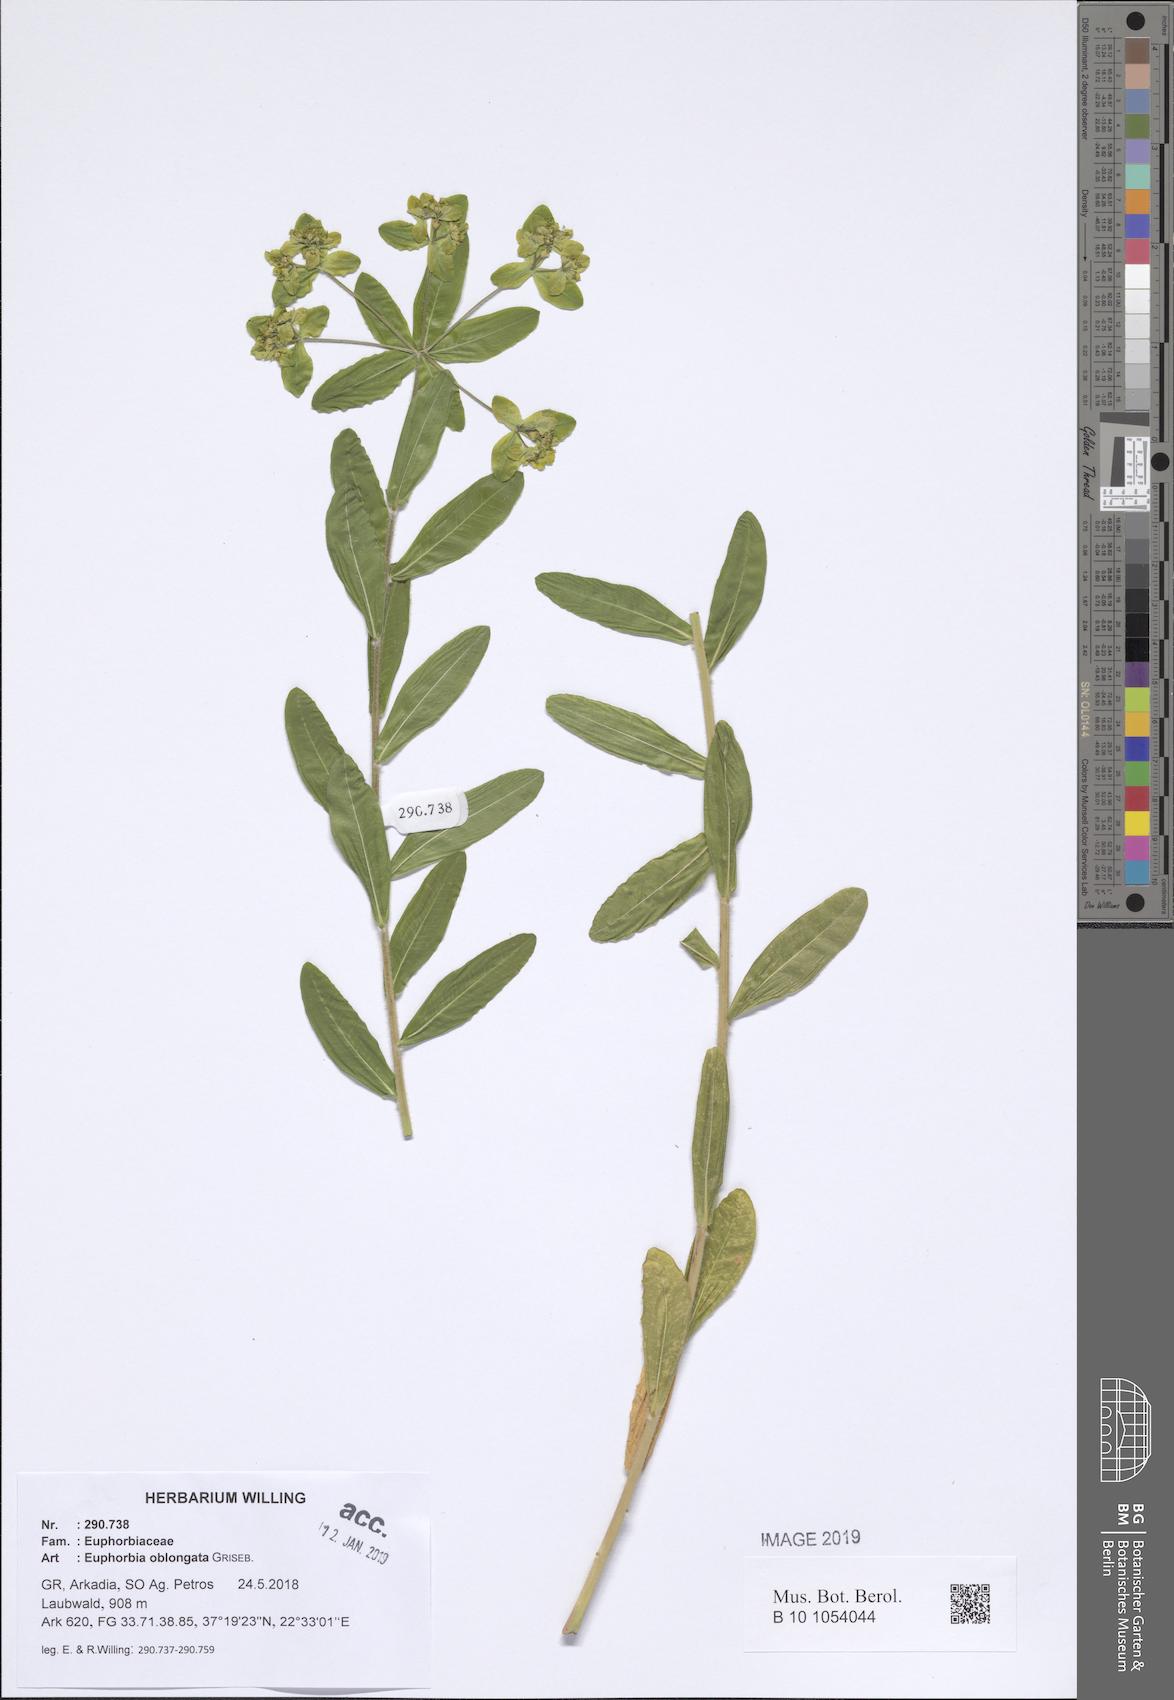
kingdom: Plantae
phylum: Tracheophyta
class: Magnoliopsida
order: Malpighiales
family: Euphorbiaceae
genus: Euphorbia
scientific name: Euphorbia oblongata
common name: Balkan spurge
